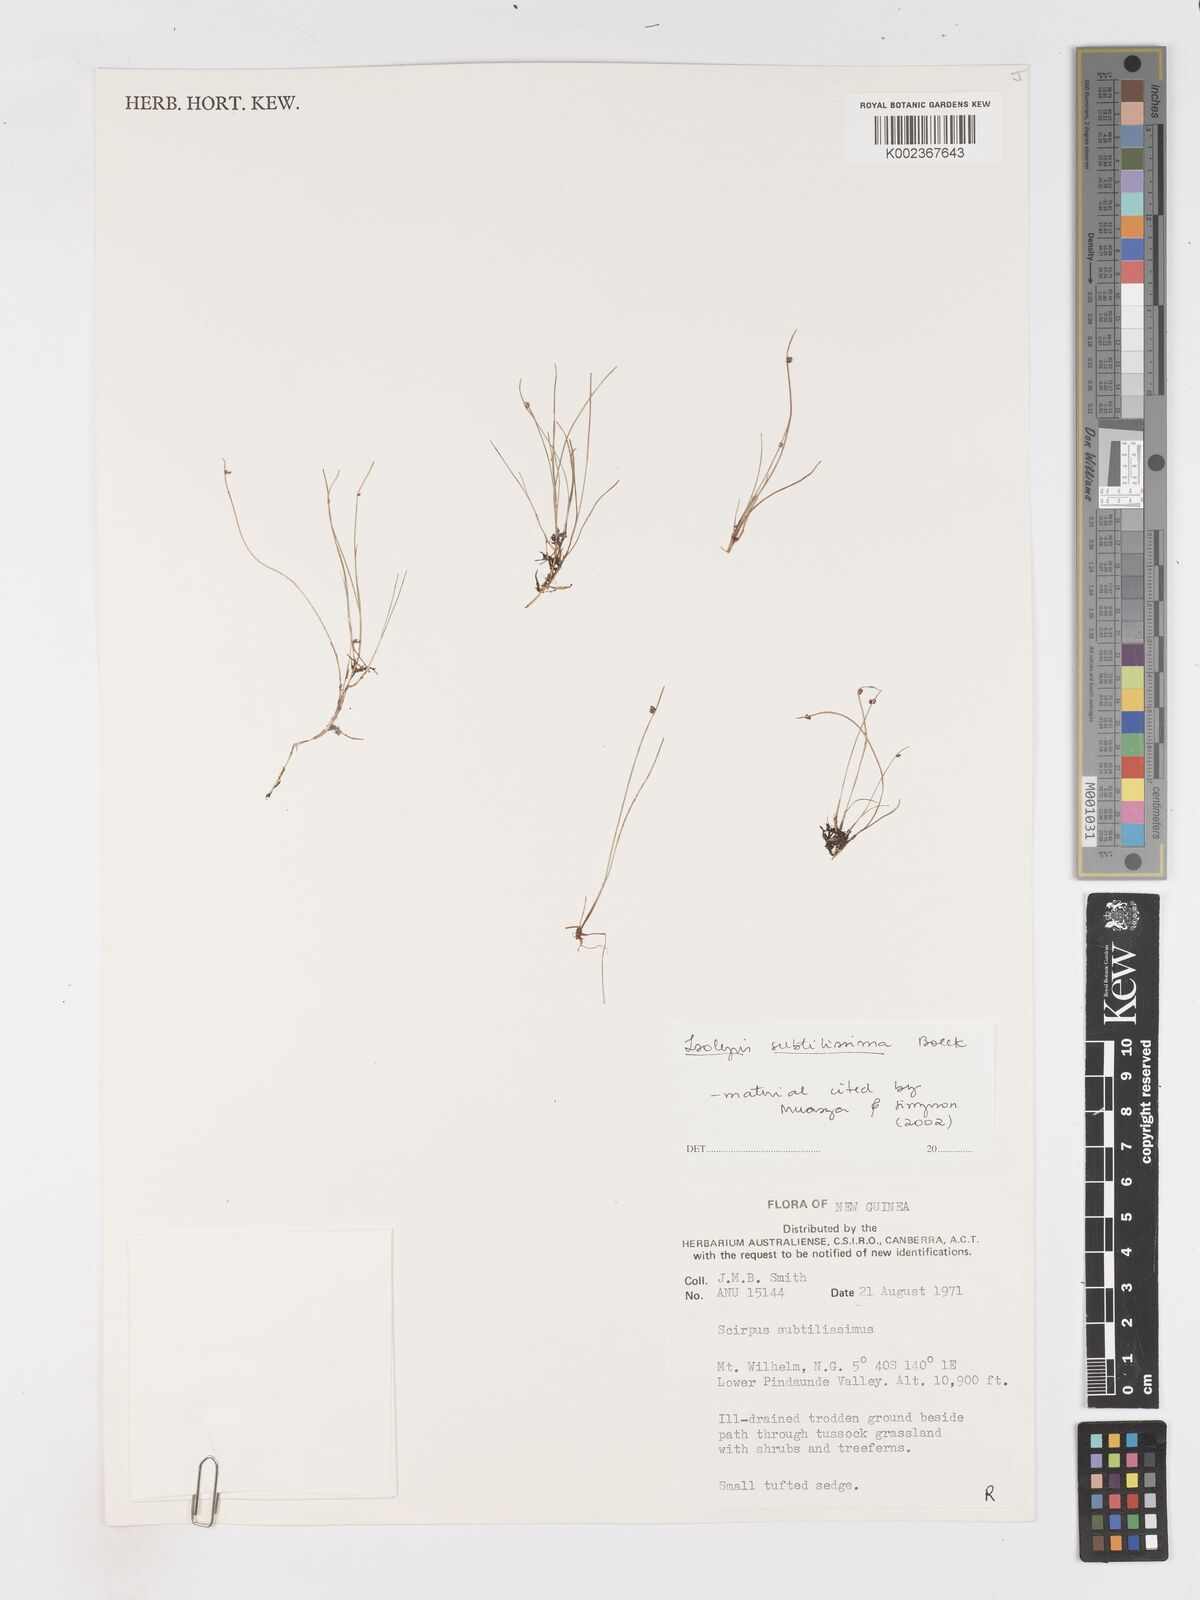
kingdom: Plantae
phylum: Tracheophyta
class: Liliopsida
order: Poales
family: Cyperaceae
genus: Isolepis
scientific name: Isolepis subtilissima
